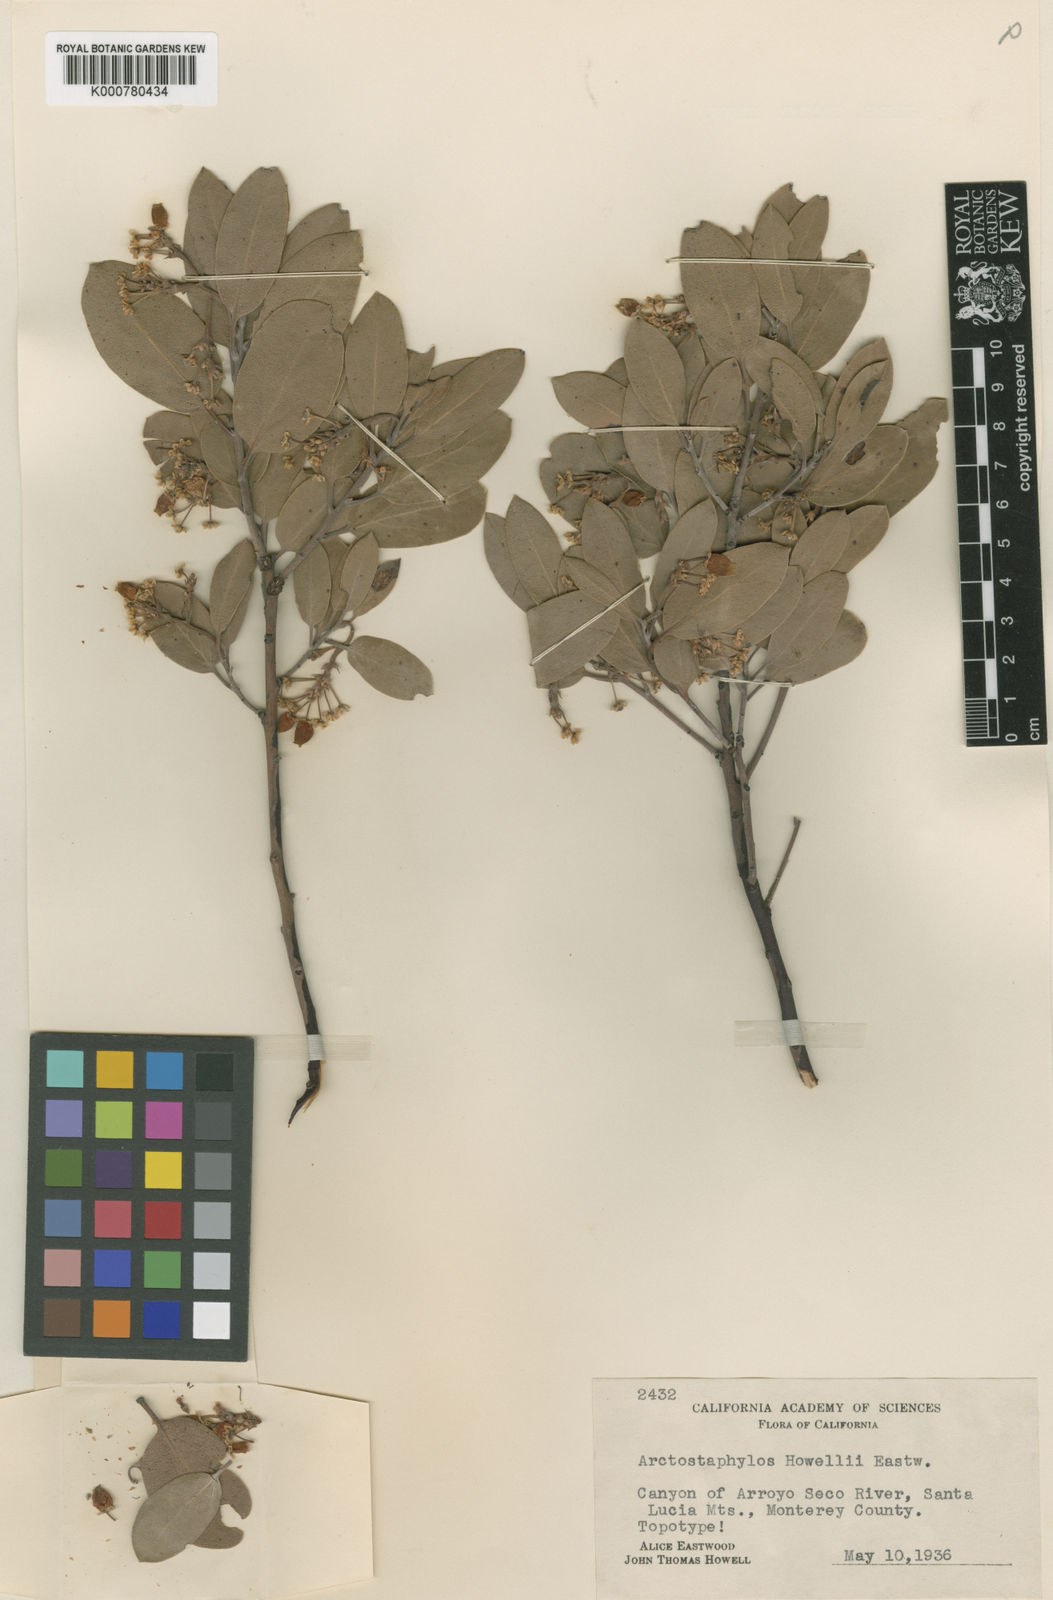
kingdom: Plantae
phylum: Tracheophyta
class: Magnoliopsida
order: Ericales
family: Ericaceae
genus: Arctostaphylos
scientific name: Arctostaphylos glandulosa
